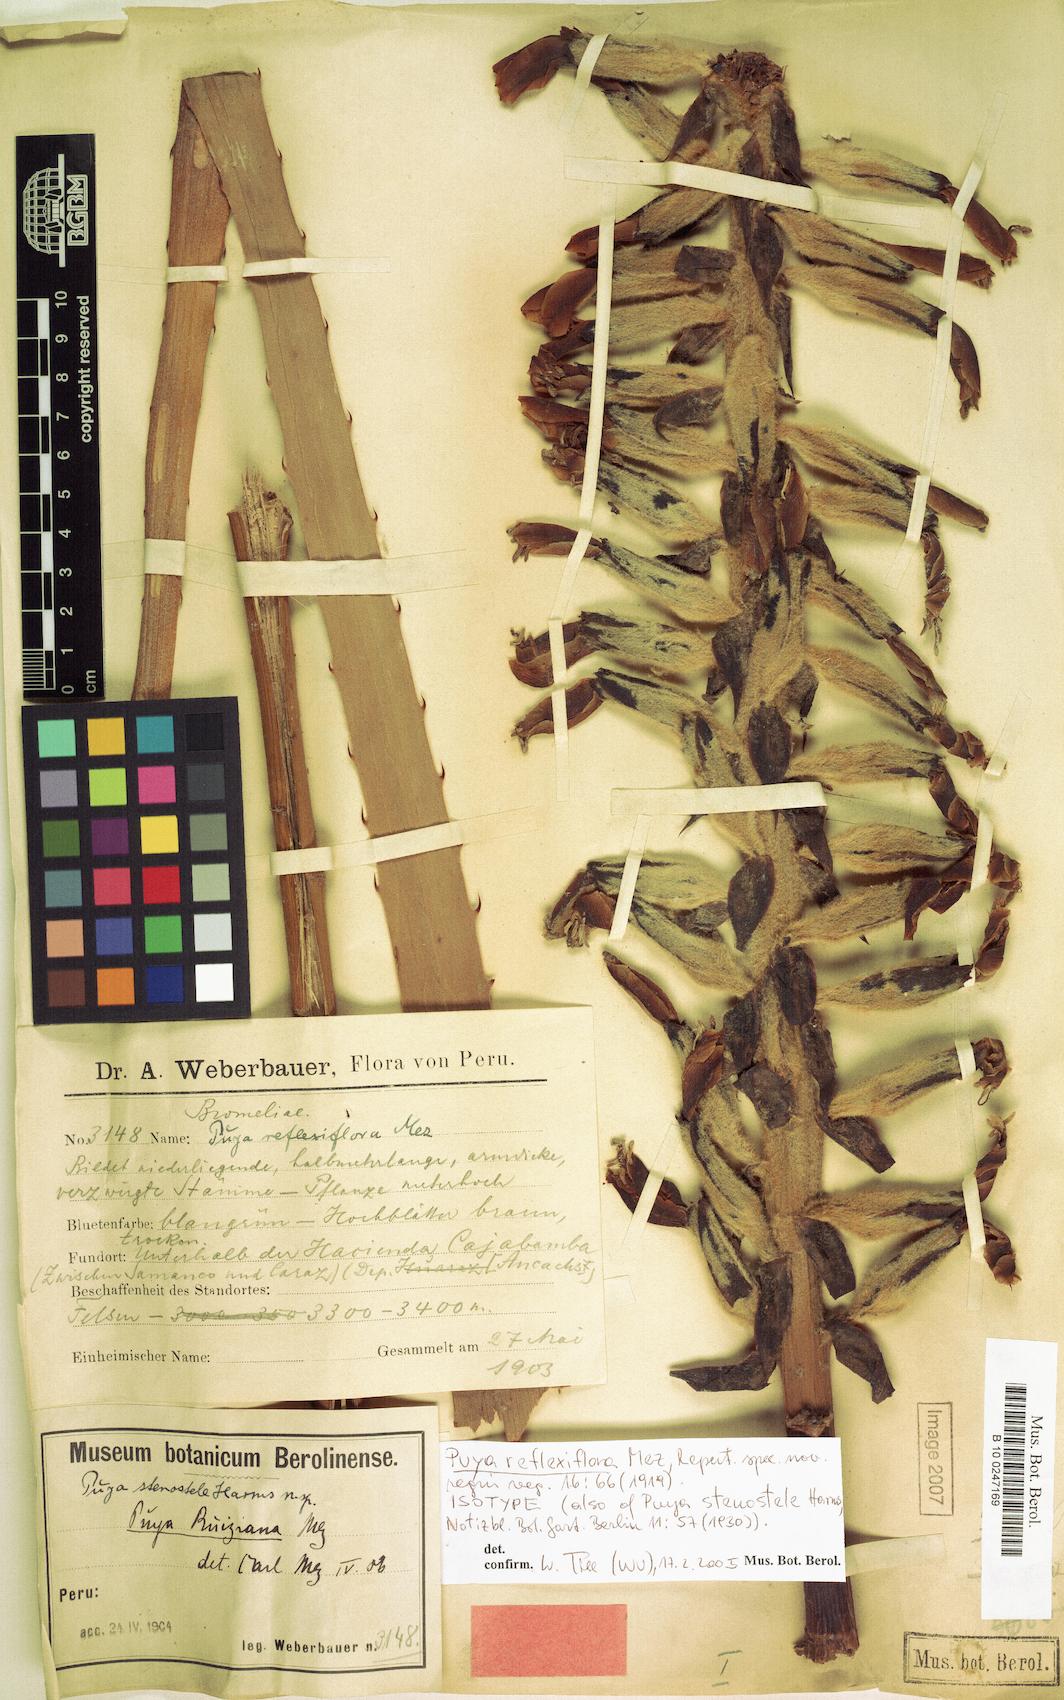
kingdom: Plantae
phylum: Tracheophyta
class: Liliopsida
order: Poales
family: Bromeliaceae
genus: Puya
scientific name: Puya reflexiflora
